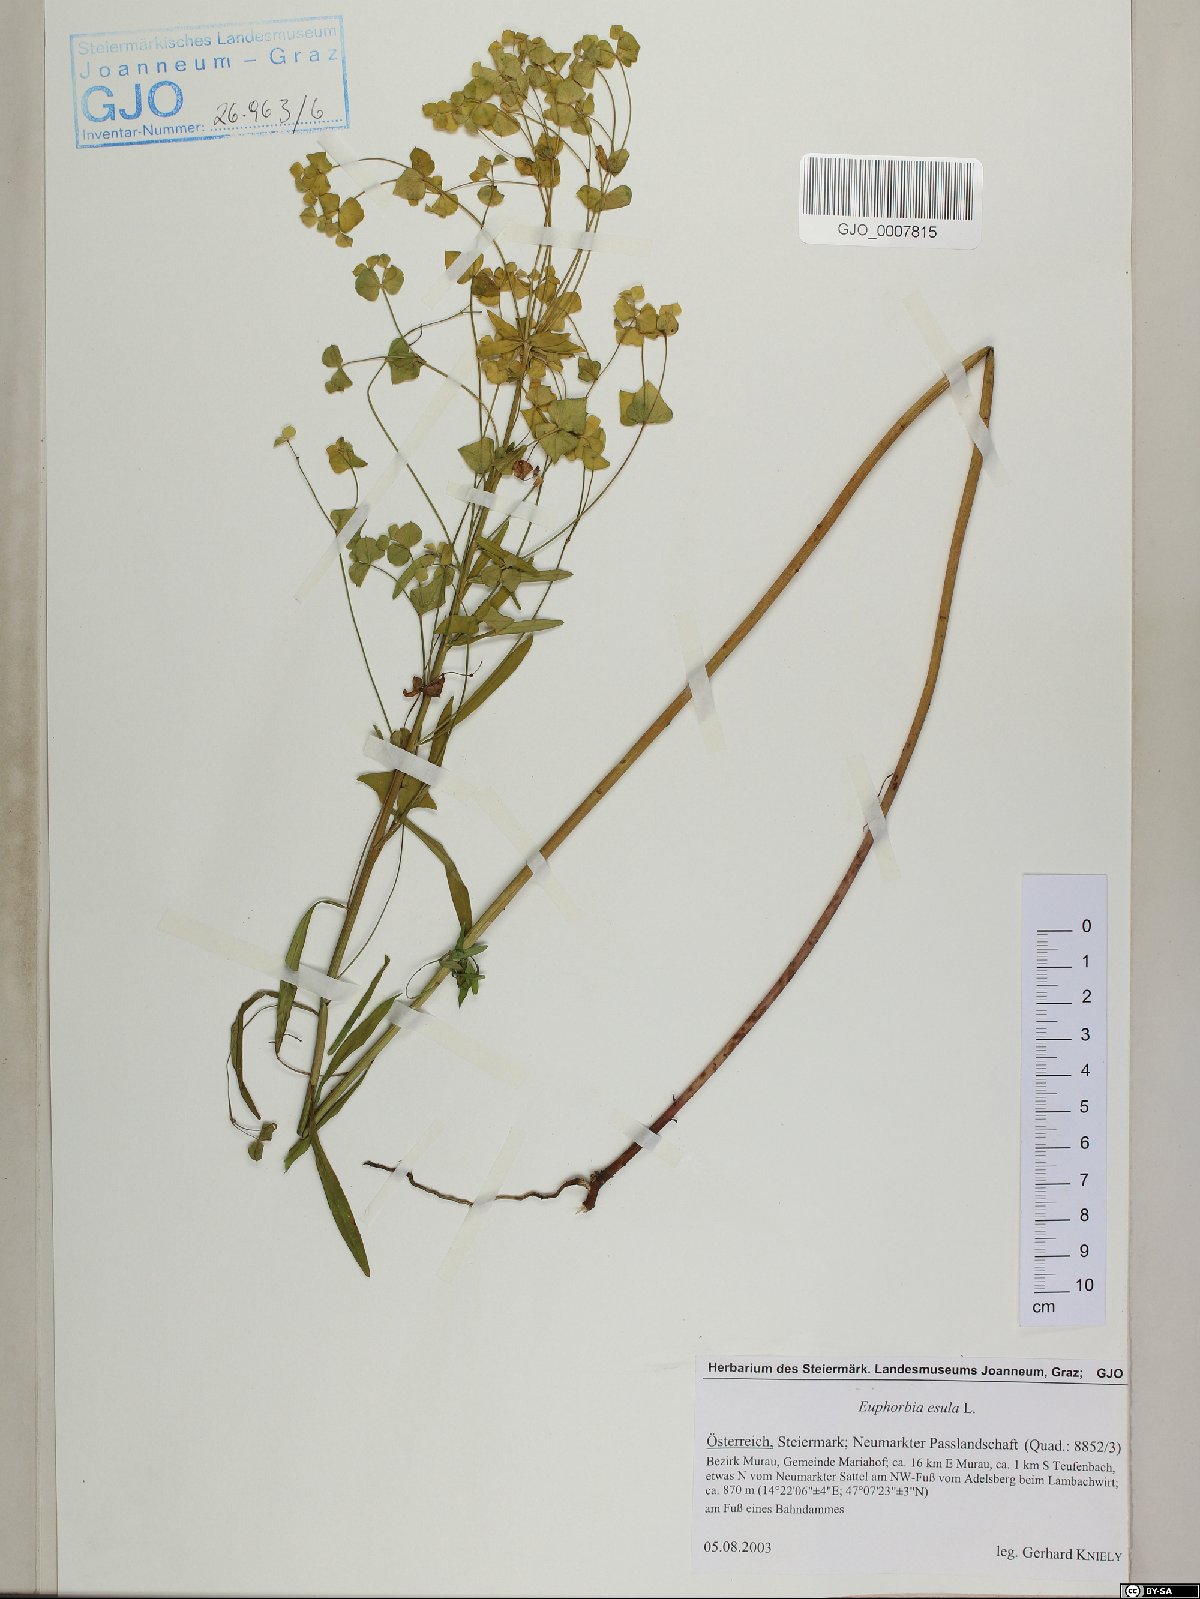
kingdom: Plantae
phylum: Tracheophyta
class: Magnoliopsida
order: Malpighiales
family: Euphorbiaceae
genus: Euphorbia
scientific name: Euphorbia esula
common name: Leafy spurge
